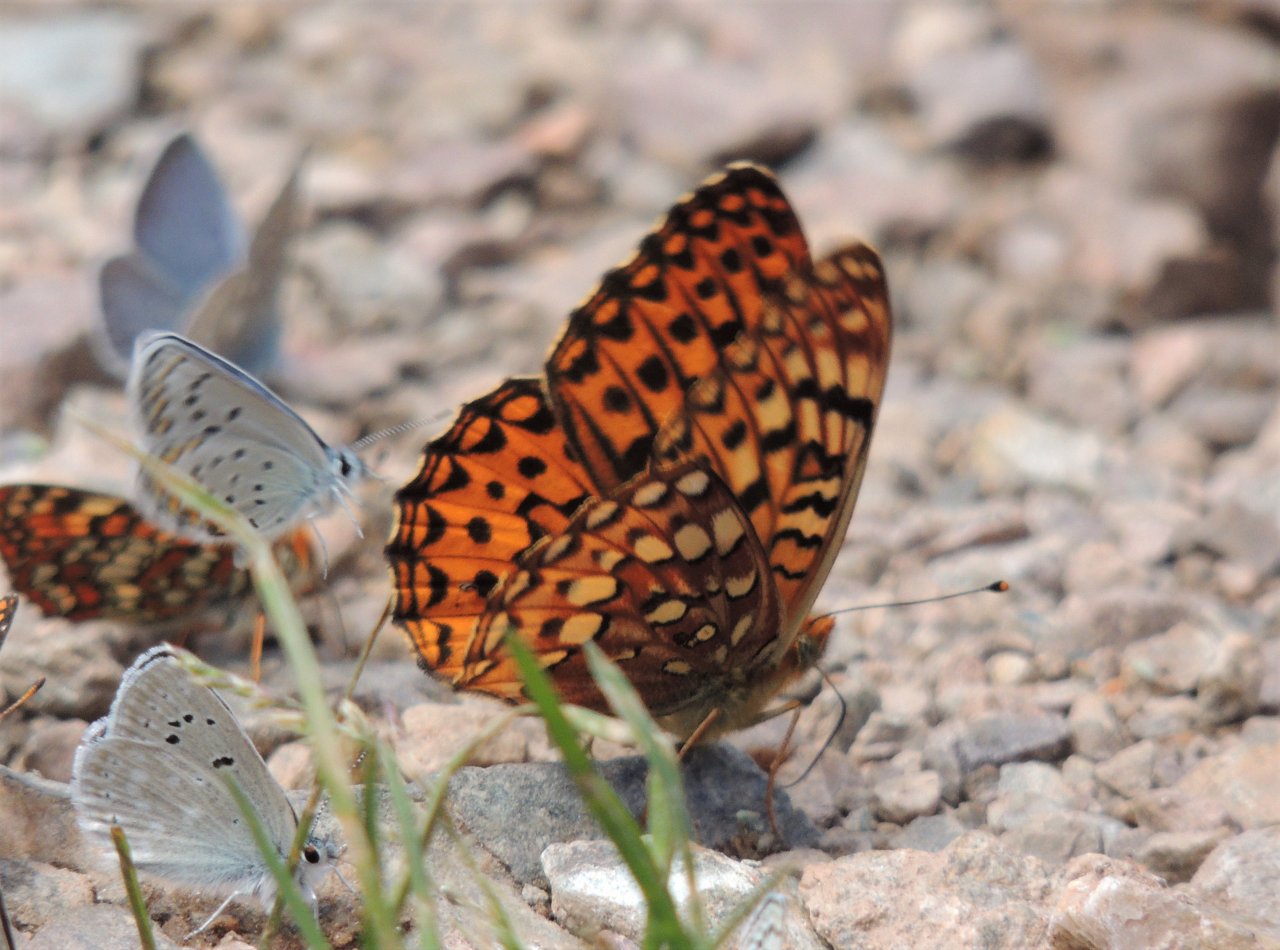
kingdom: Animalia
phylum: Arthropoda
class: Insecta
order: Lepidoptera
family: Nymphalidae
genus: Speyeria
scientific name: Speyeria hydaspe
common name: Hydaspe Fritillary
